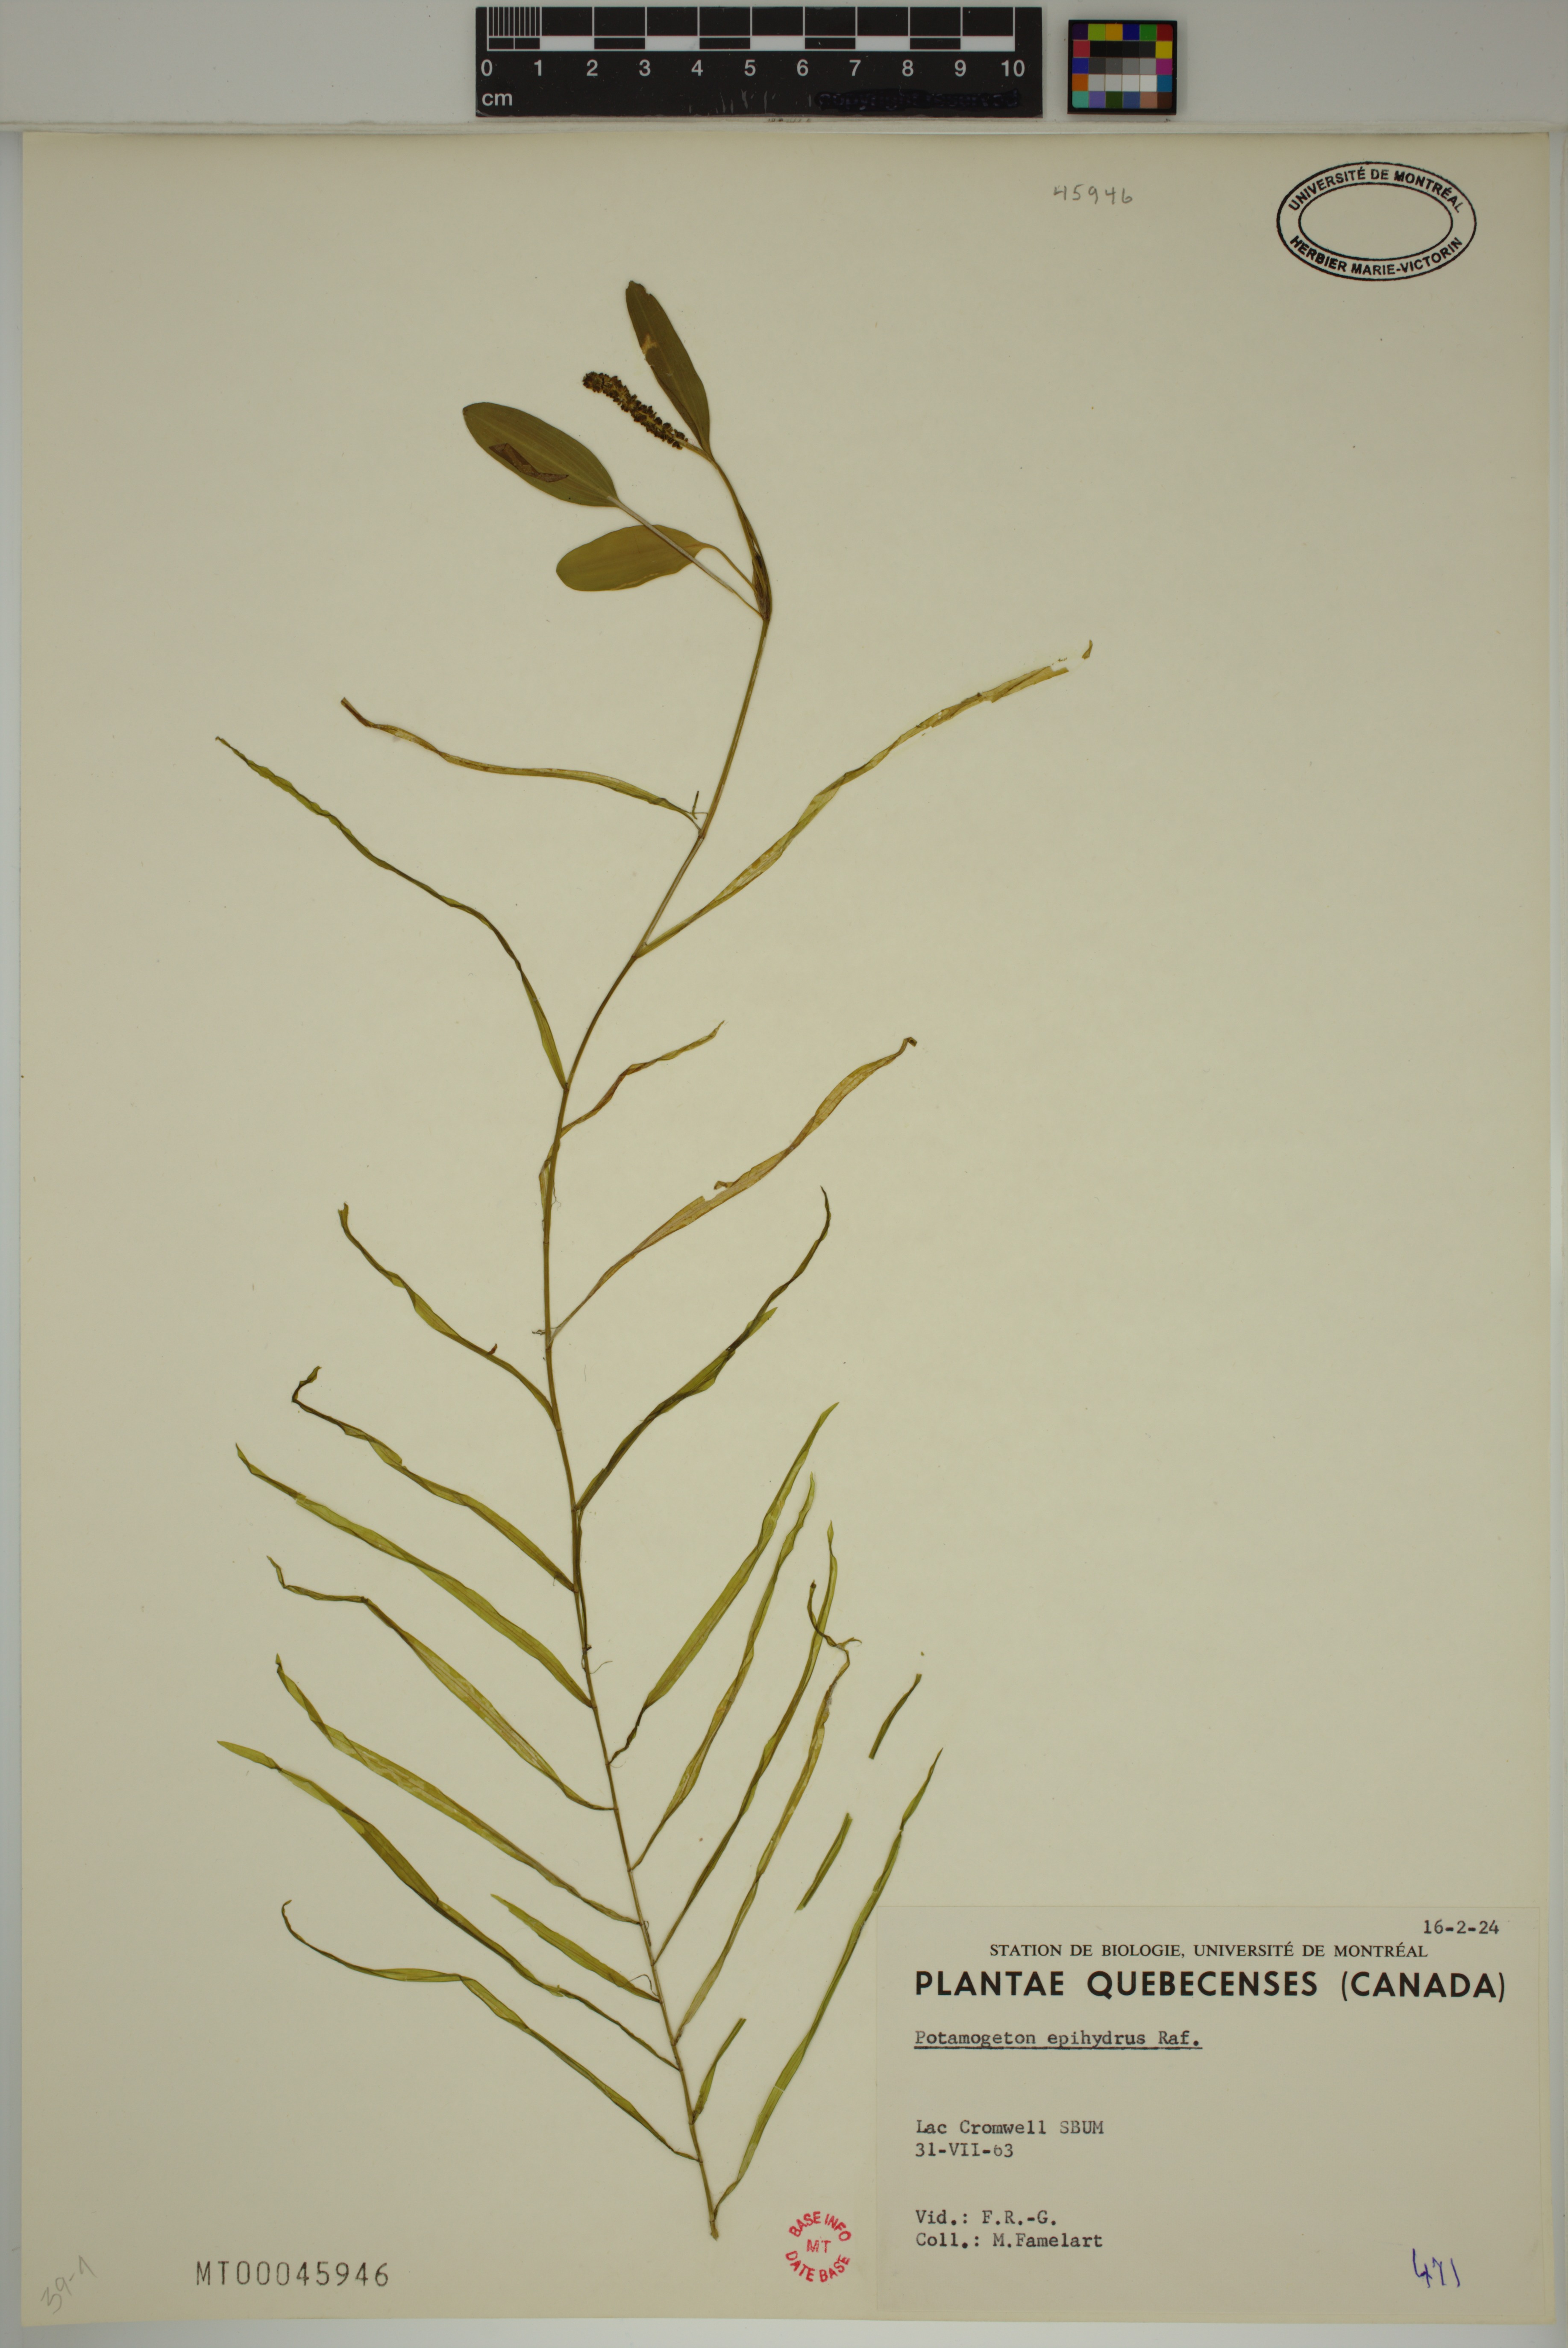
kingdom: Plantae
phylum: Tracheophyta
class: Liliopsida
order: Alismatales
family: Potamogetonaceae
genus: Potamogeton
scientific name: Potamogeton epihydrus
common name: American pondweed
